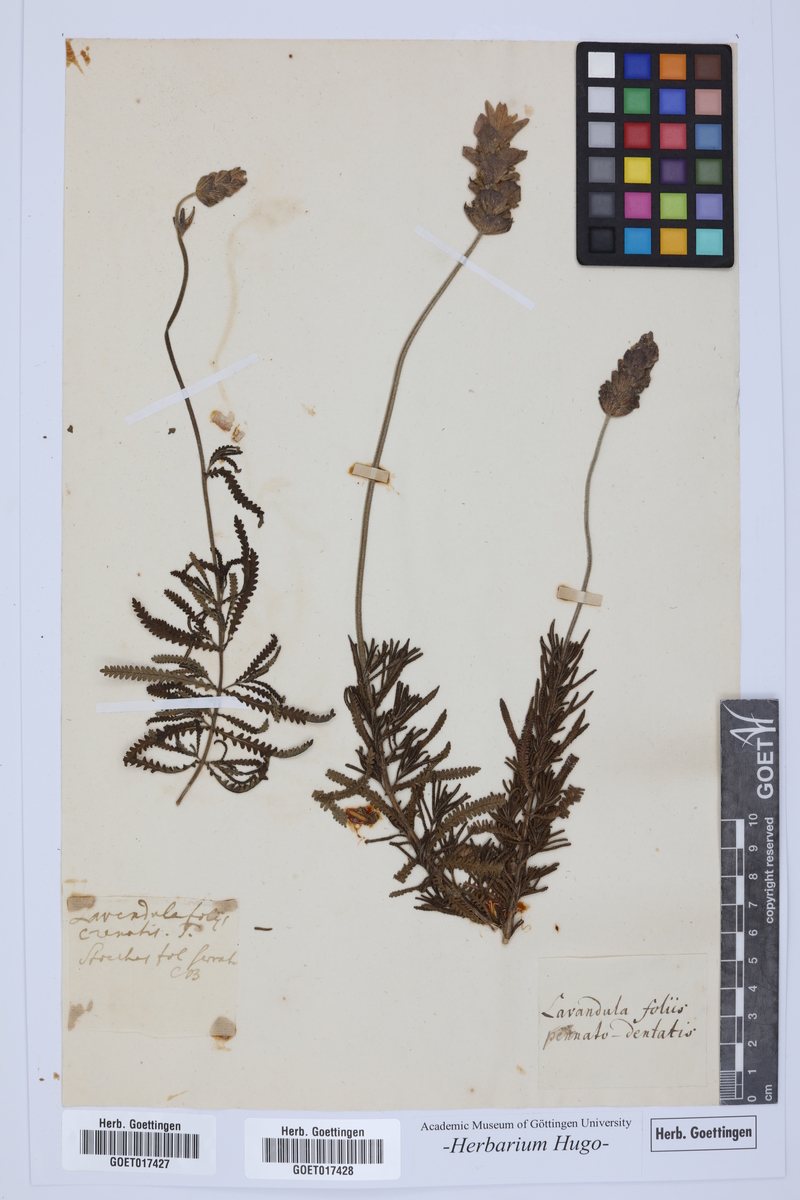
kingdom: Plantae
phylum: Tracheophyta
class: Magnoliopsida
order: Lamiales
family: Lamiaceae
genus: Lavandula
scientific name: Lavandula dentata
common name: French lavender
